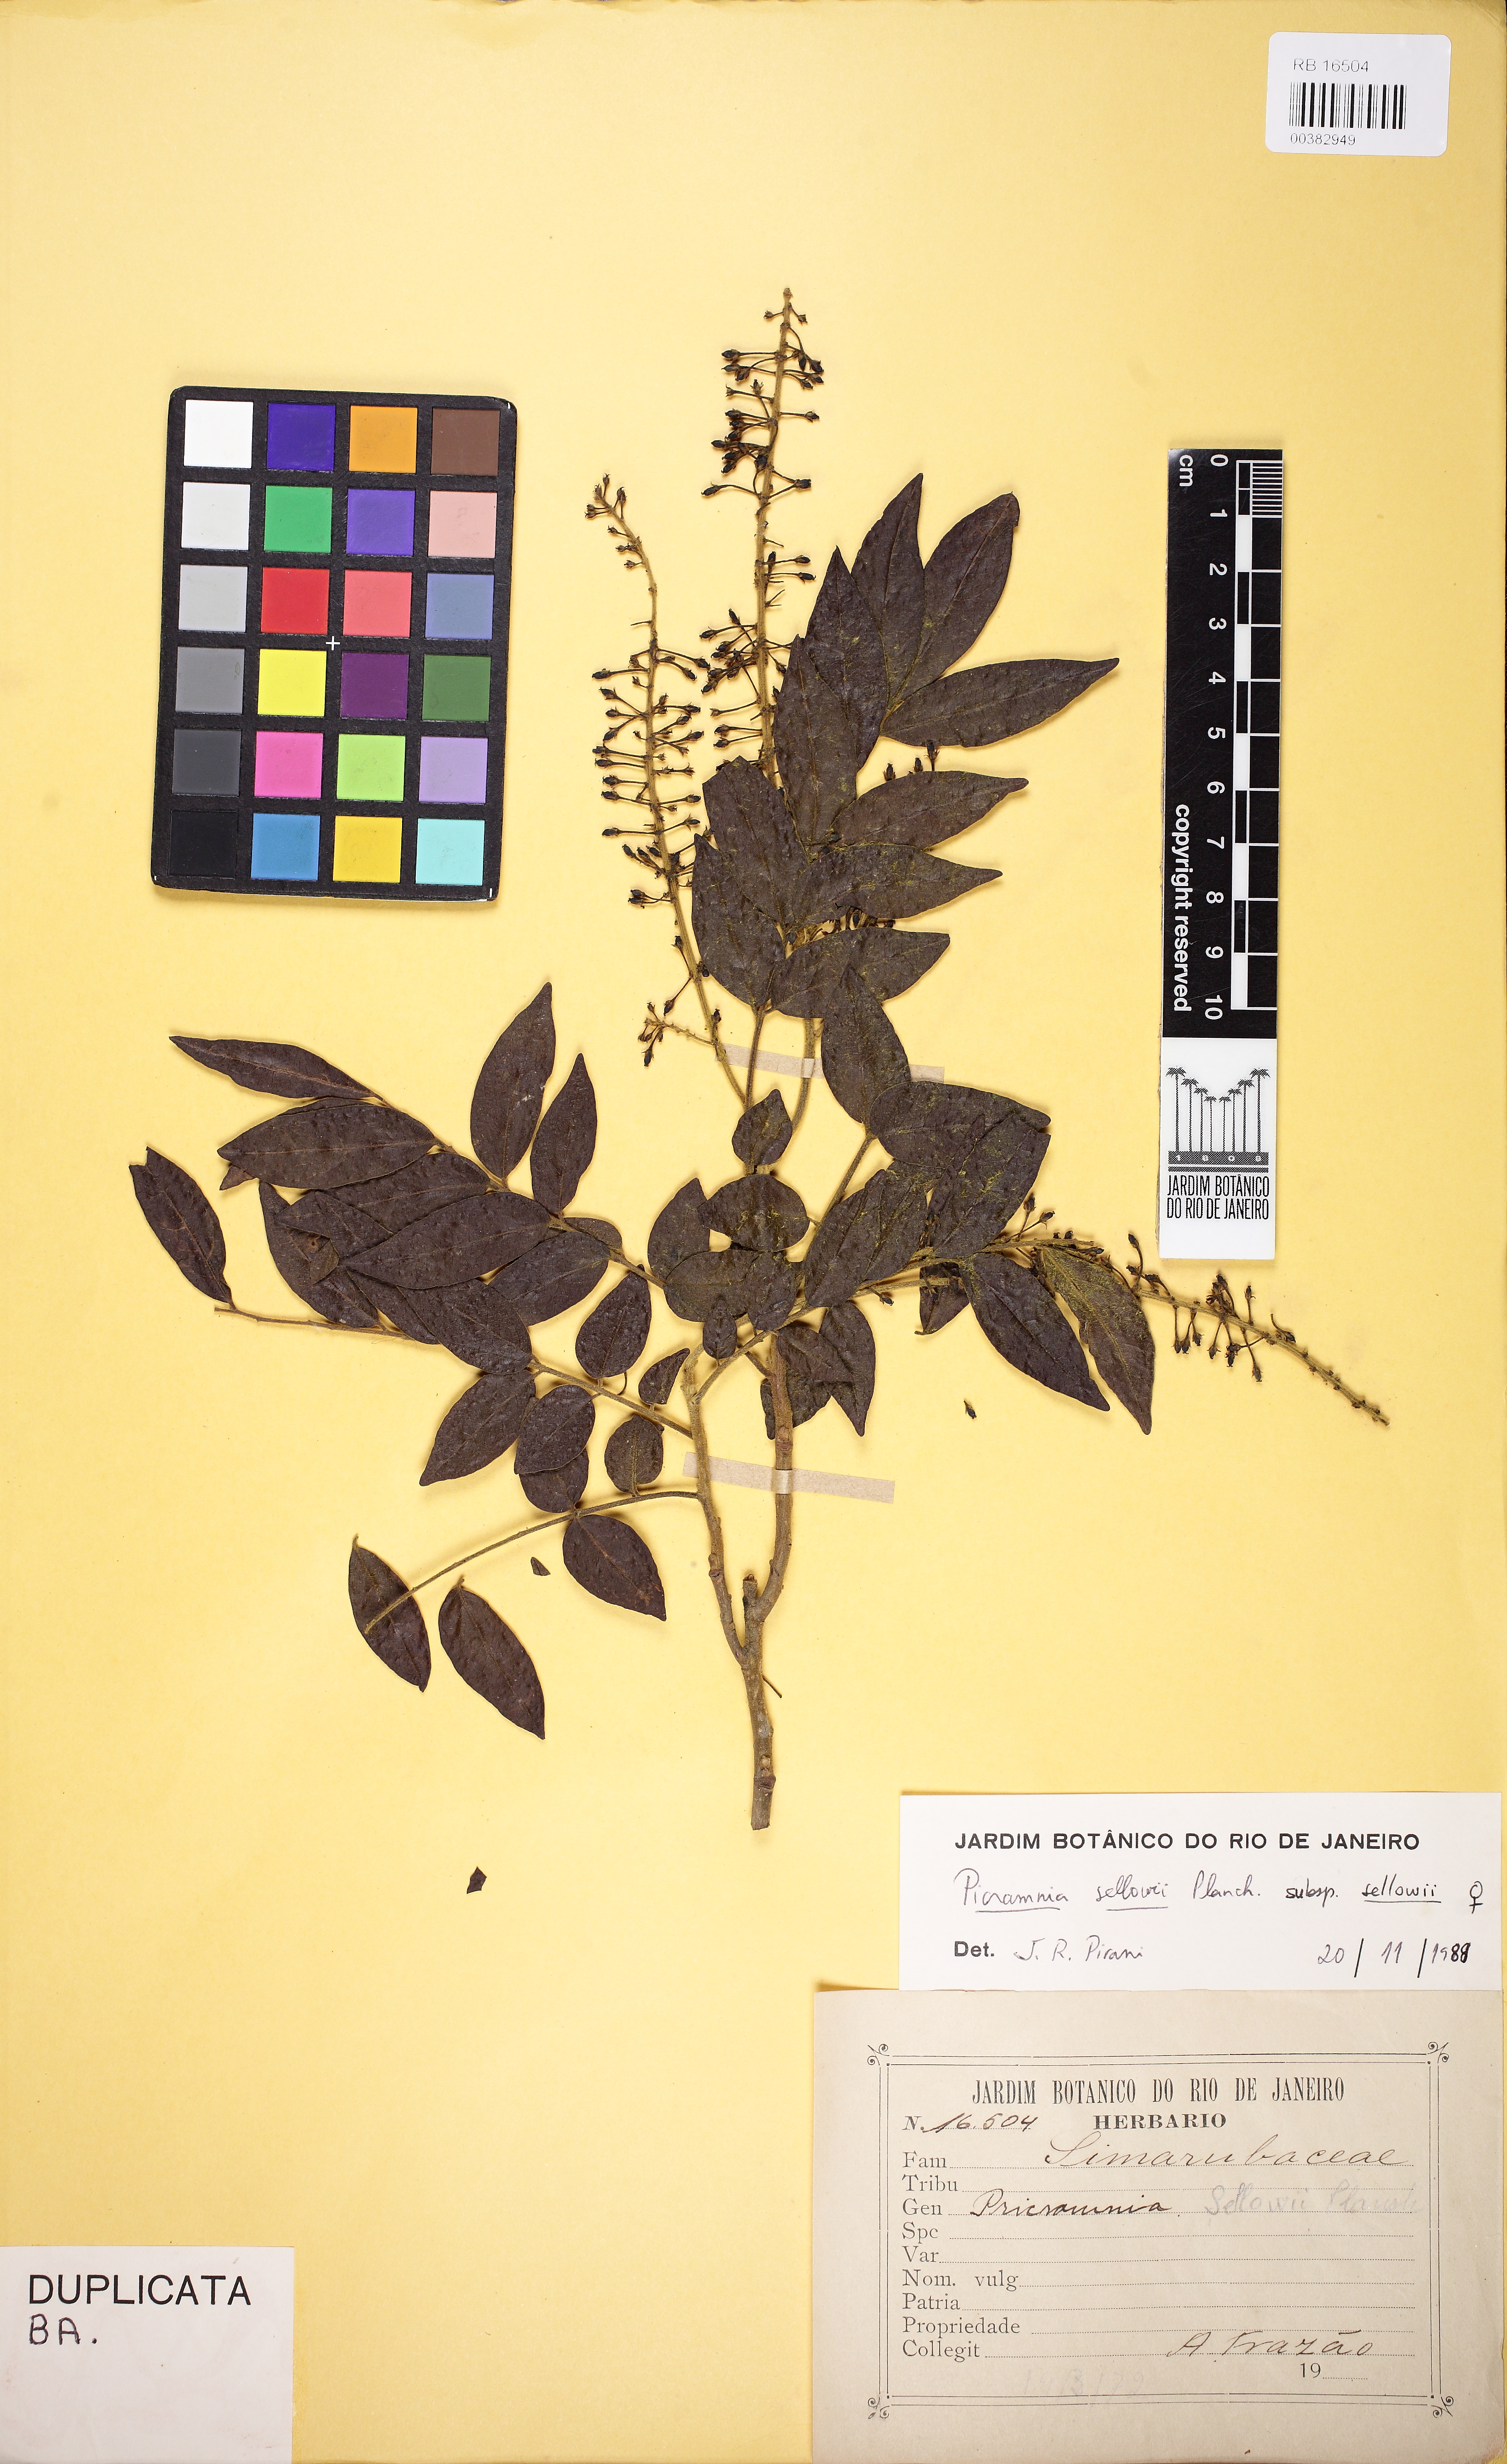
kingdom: Plantae
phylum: Tracheophyta
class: Magnoliopsida
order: Picramniales
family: Picramniaceae
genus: Picramnia
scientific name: Picramnia sellowii
